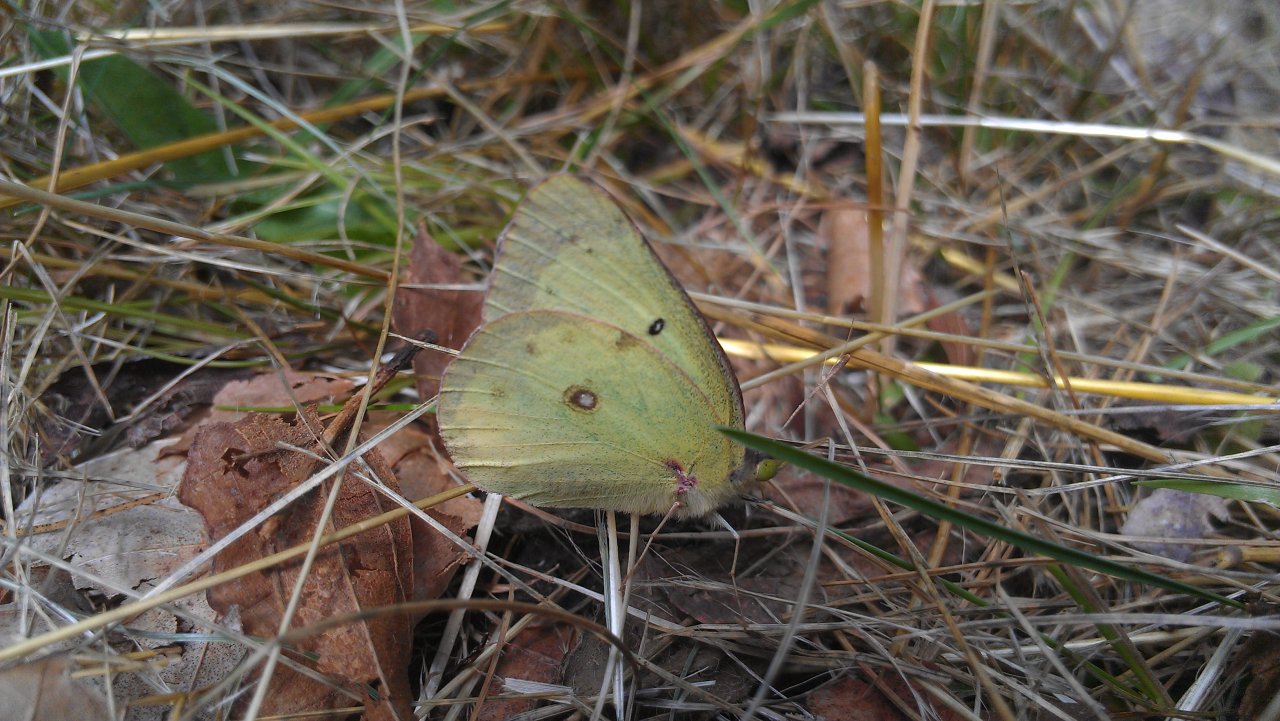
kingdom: Animalia
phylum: Arthropoda
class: Insecta
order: Lepidoptera
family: Pieridae
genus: Colias
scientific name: Colias philodice
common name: Clouded Sulphur
